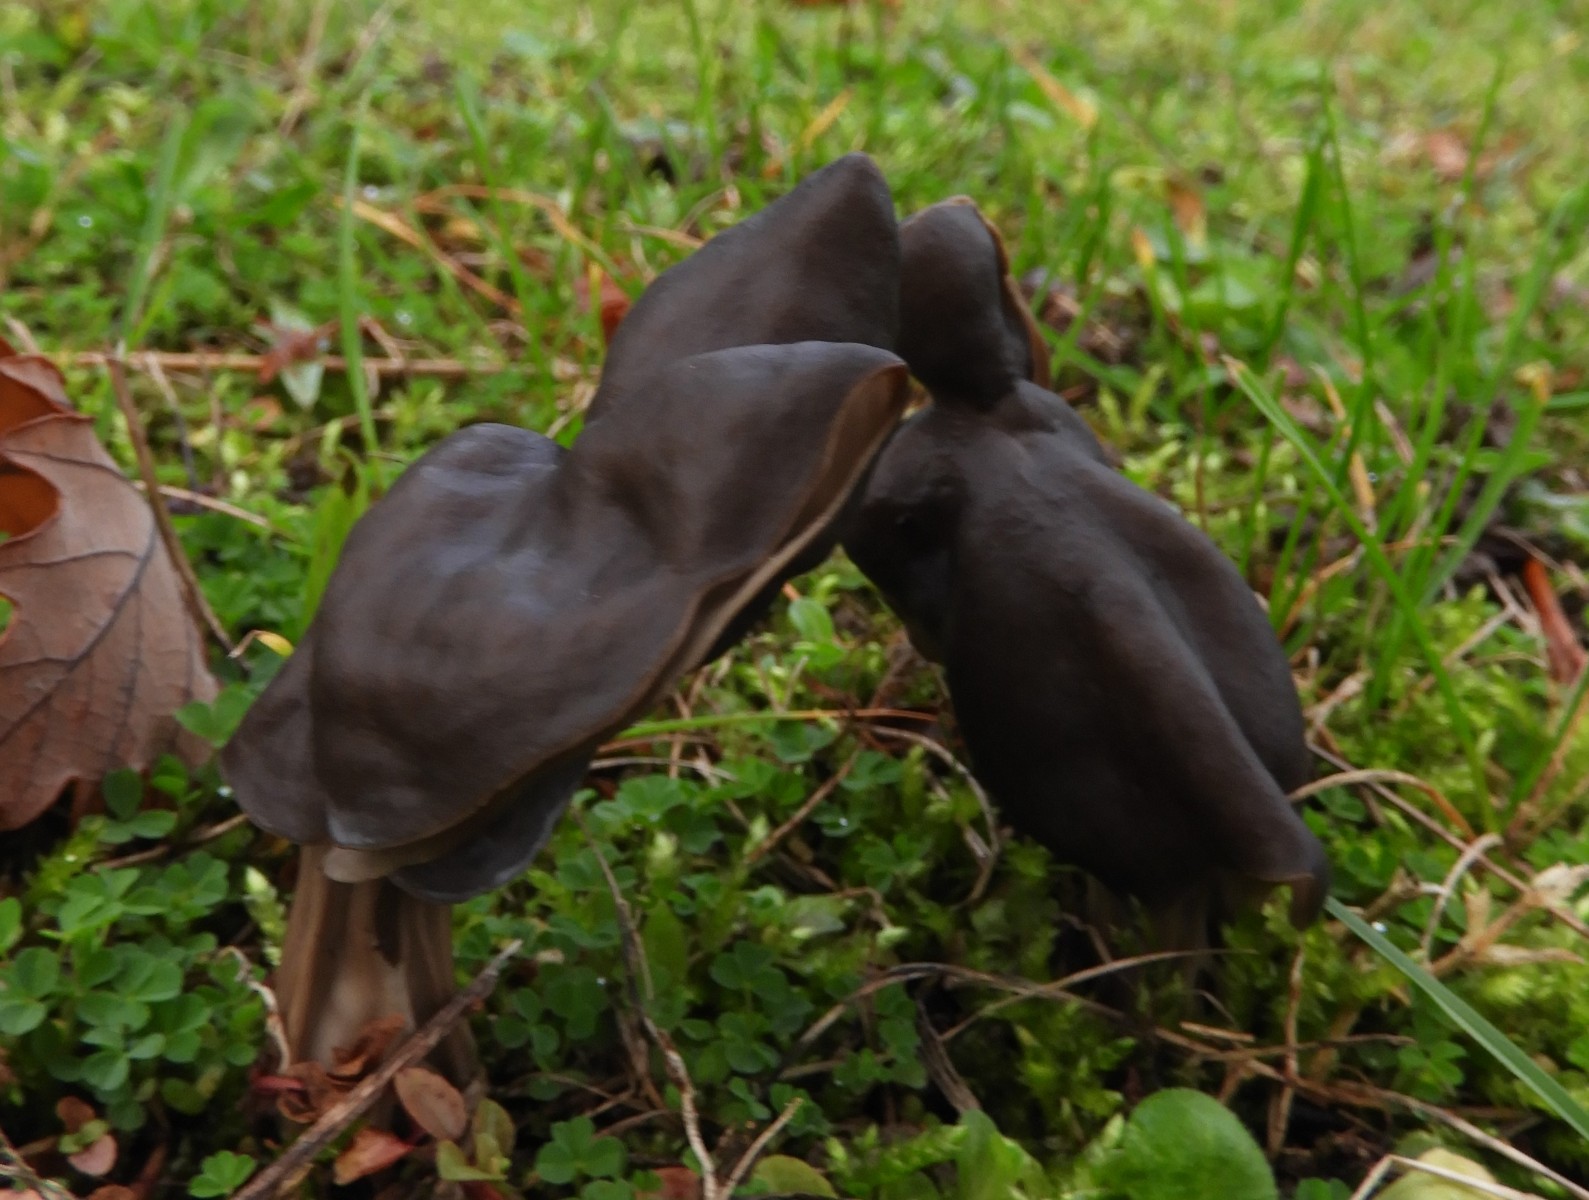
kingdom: Fungi
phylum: Ascomycota
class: Pezizomycetes
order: Pezizales
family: Helvellaceae
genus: Helvella
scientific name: Helvella lacunosa
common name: grubet foldhat
